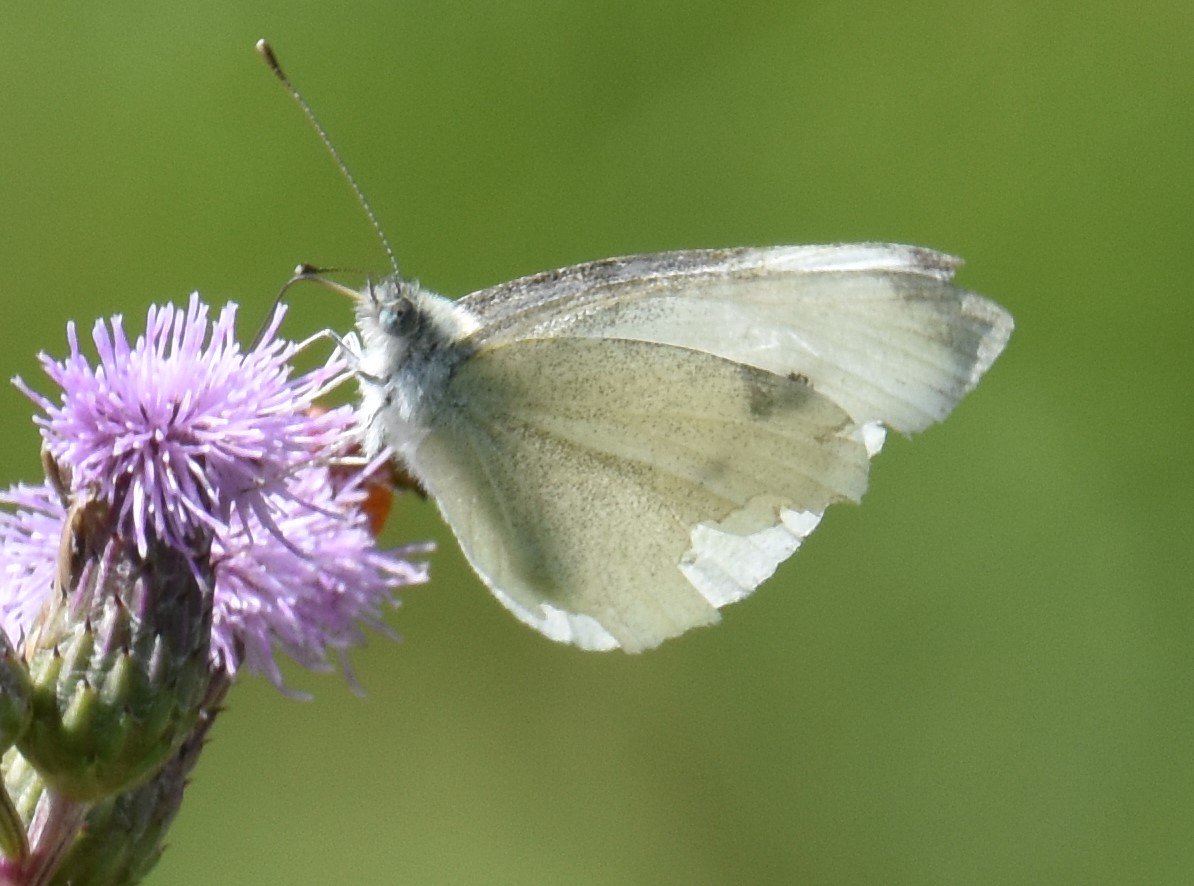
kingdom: Animalia
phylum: Arthropoda
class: Insecta
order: Lepidoptera
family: Pieridae
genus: Pieris
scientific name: Pieris rapae
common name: Cabbage White
